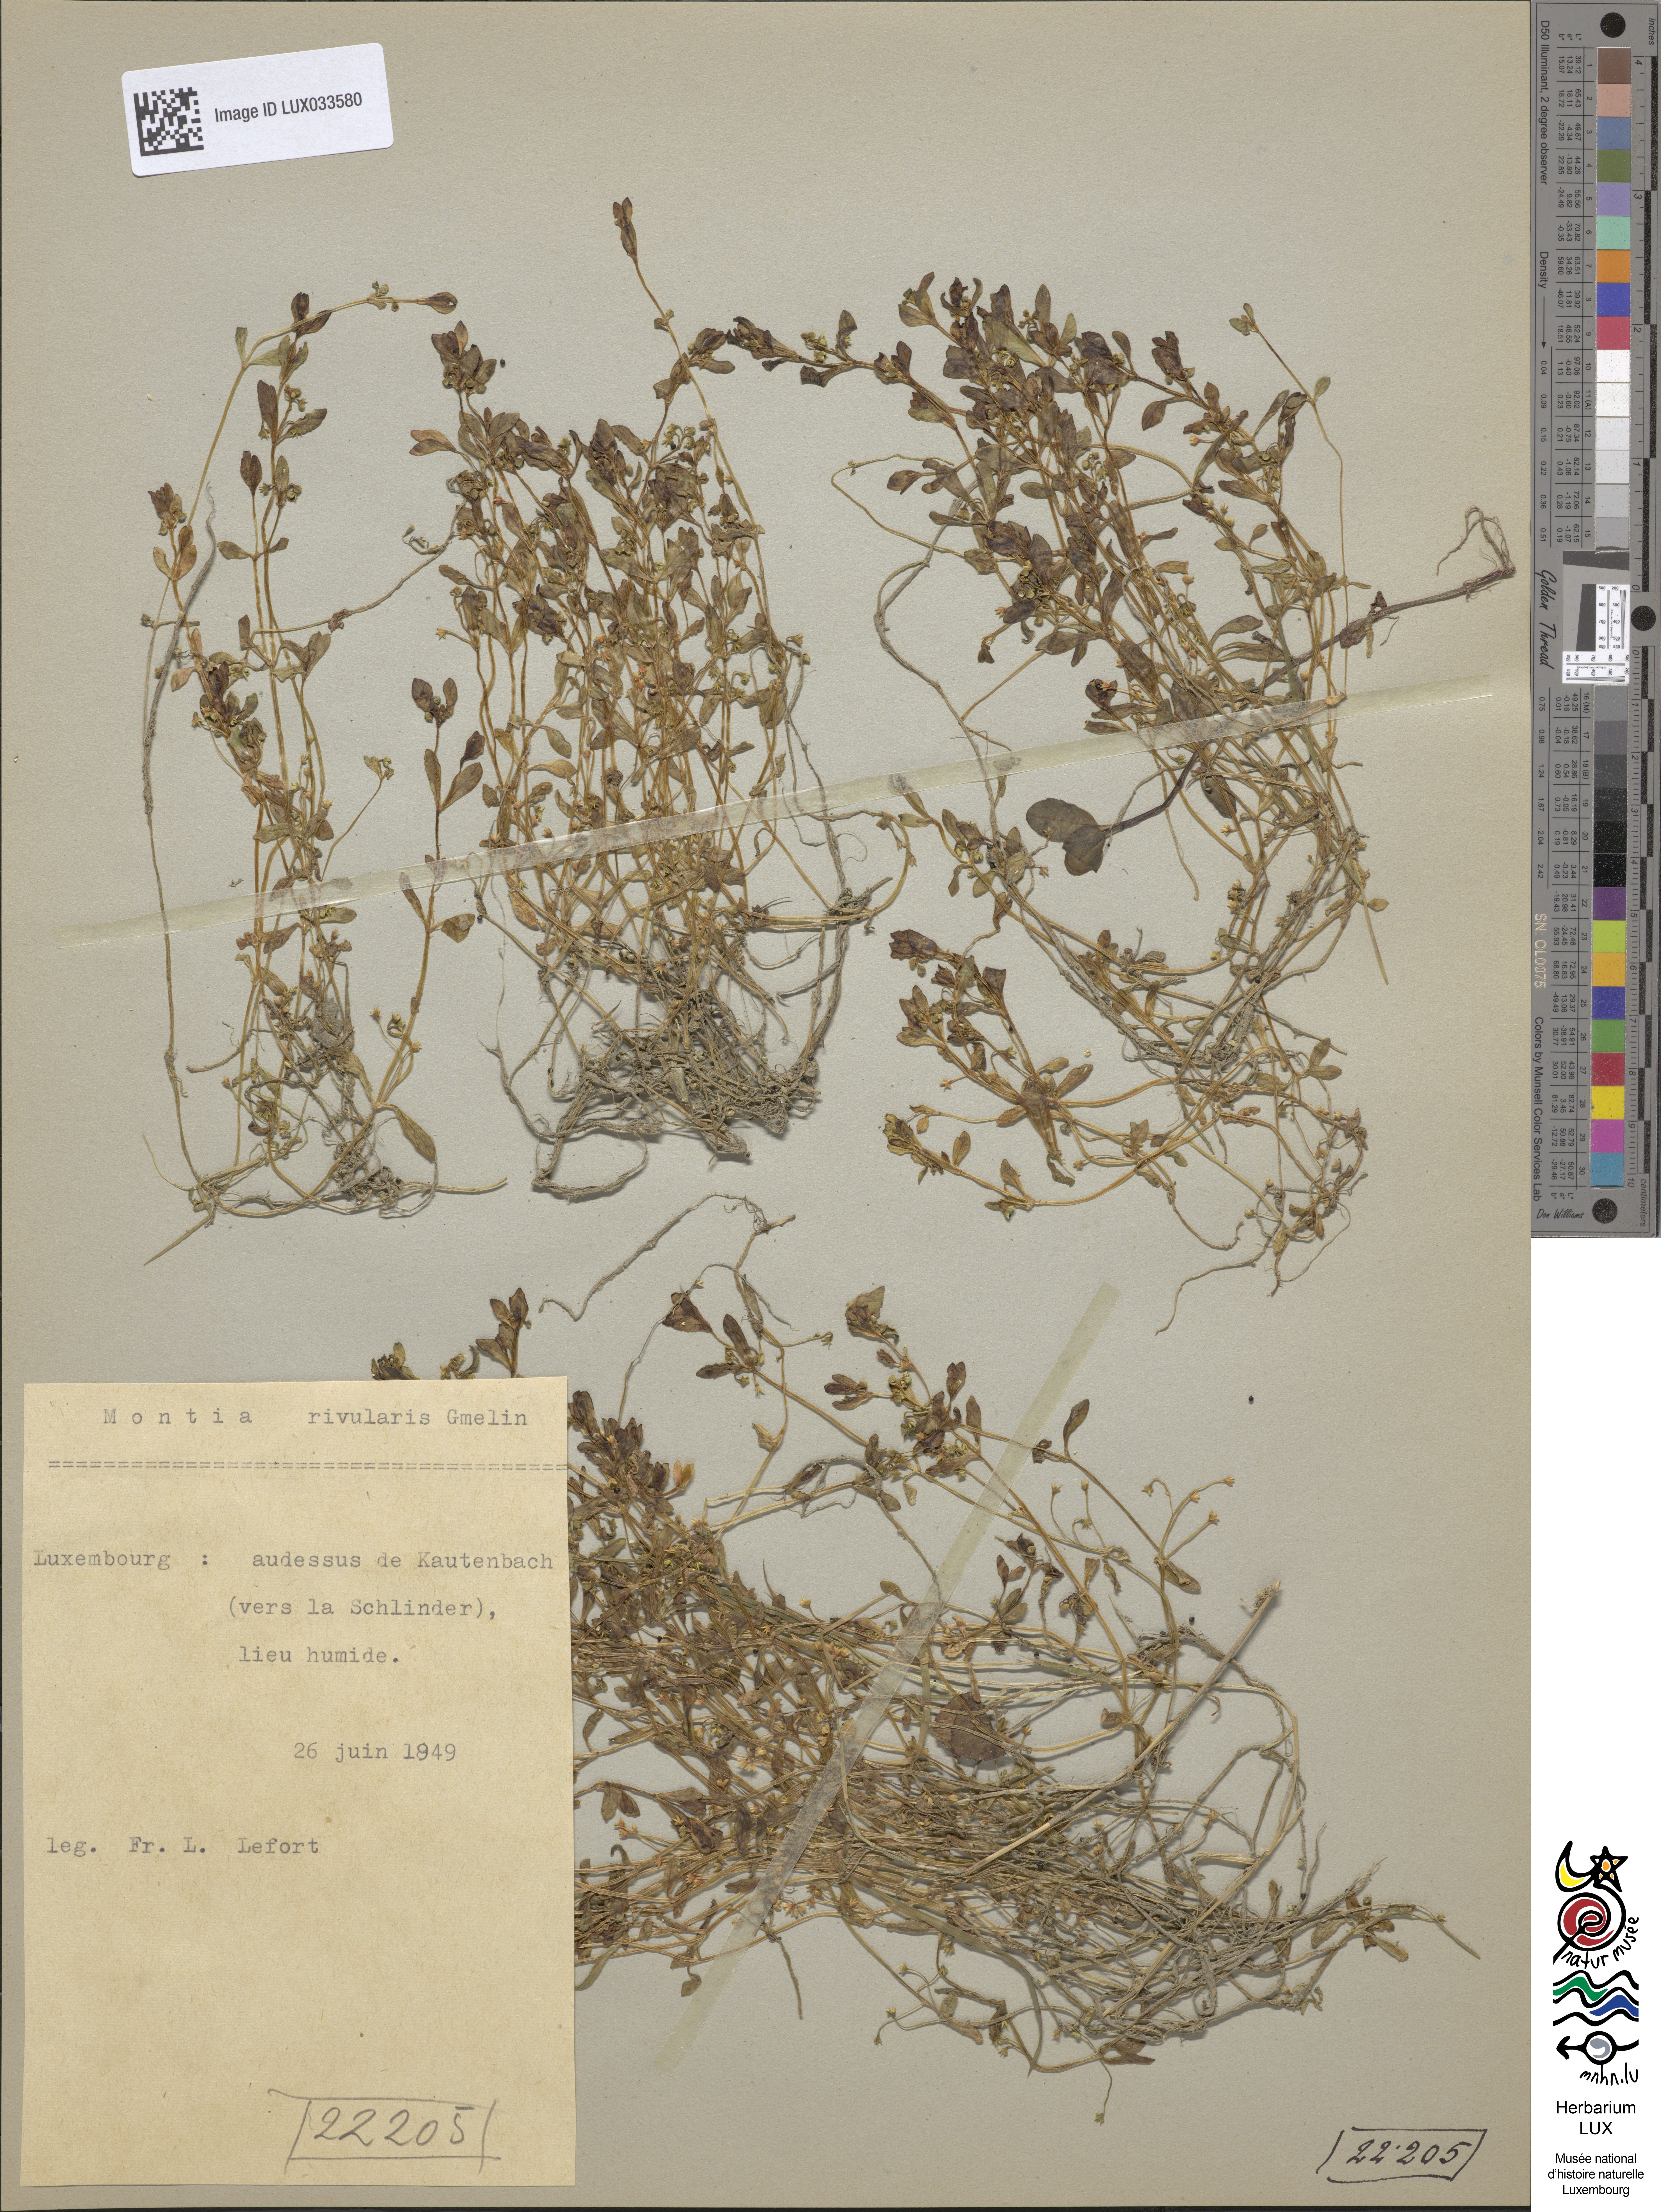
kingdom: Plantae
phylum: Tracheophyta
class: Magnoliopsida
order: Caryophyllales
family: Montiaceae
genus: Montia
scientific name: Montia fontana
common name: Blinks
